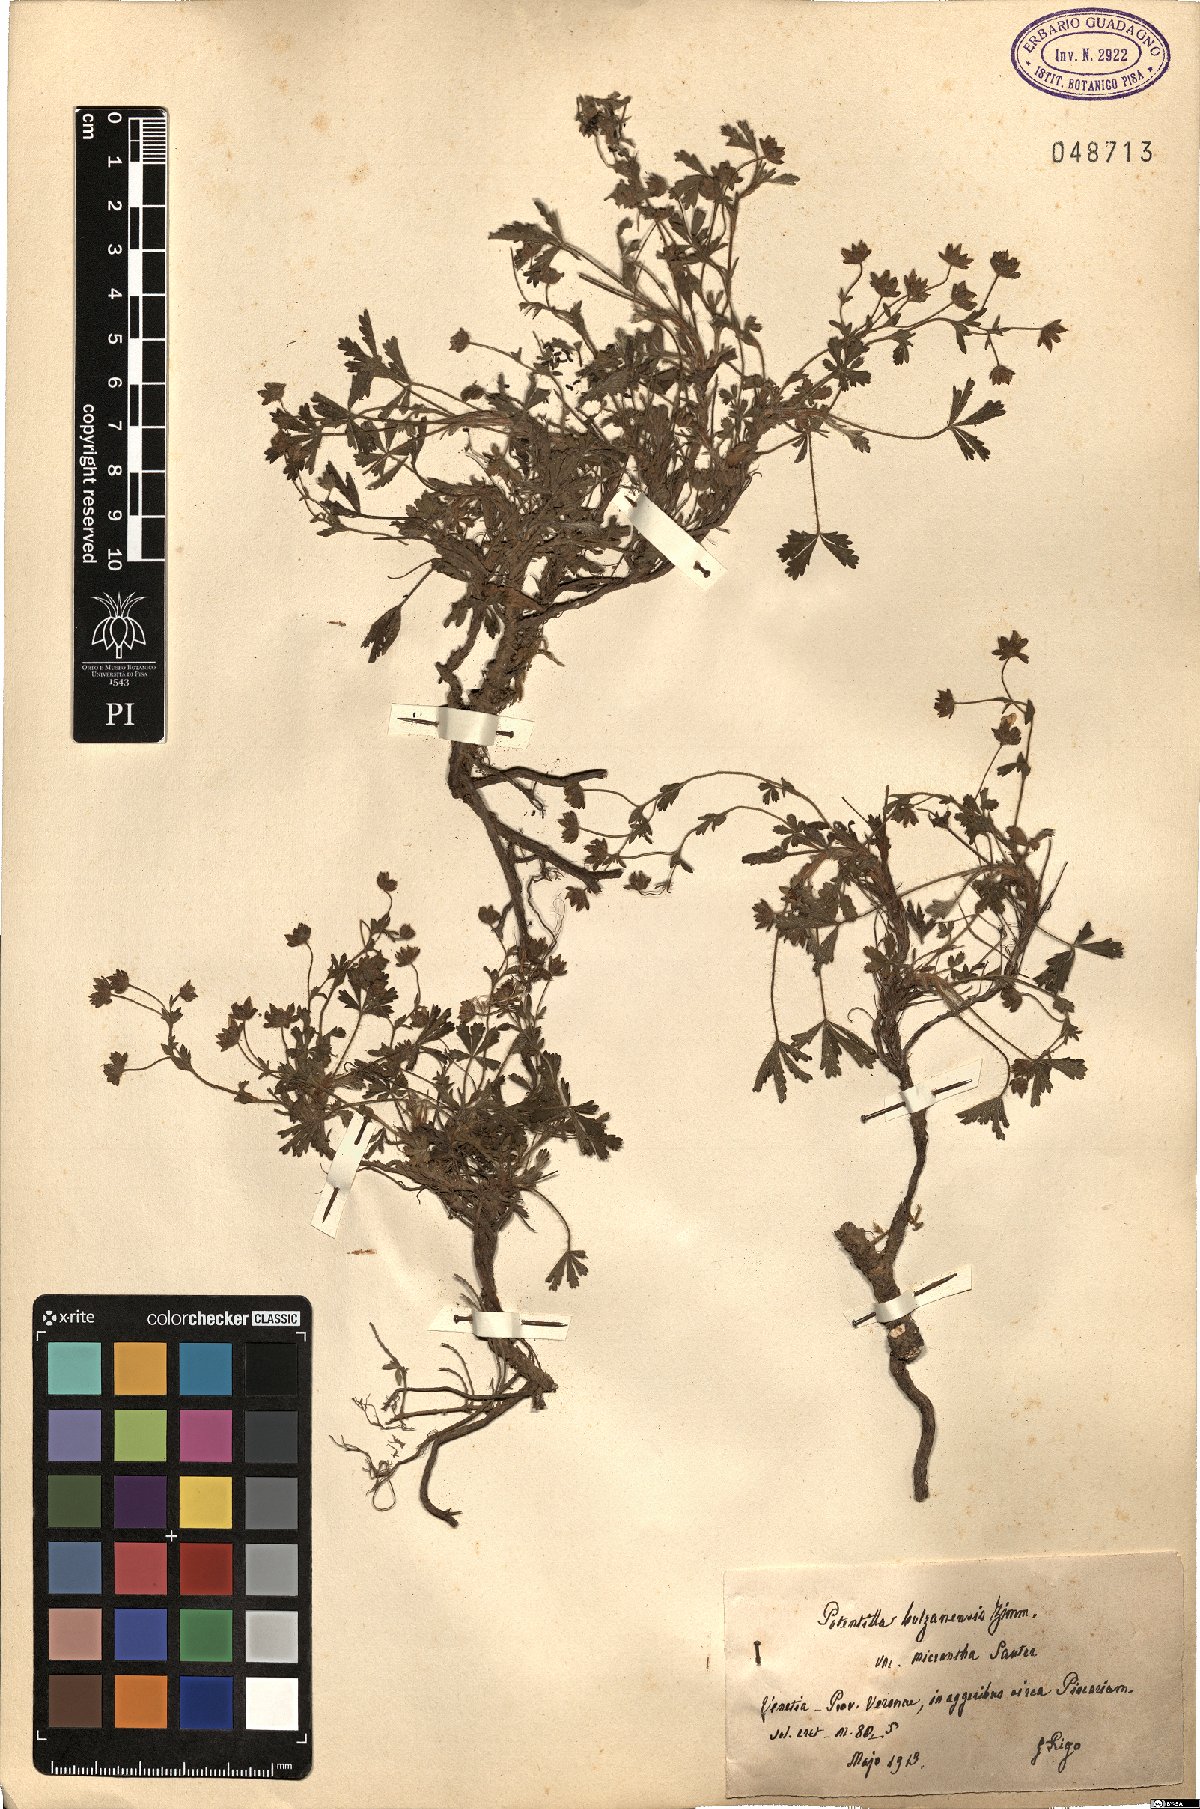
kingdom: Plantae
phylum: Tracheophyta
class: Magnoliopsida
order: Rosales
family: Rosaceae
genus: Potentilla
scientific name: Potentilla cinerea
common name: Ashy cinquefoil
